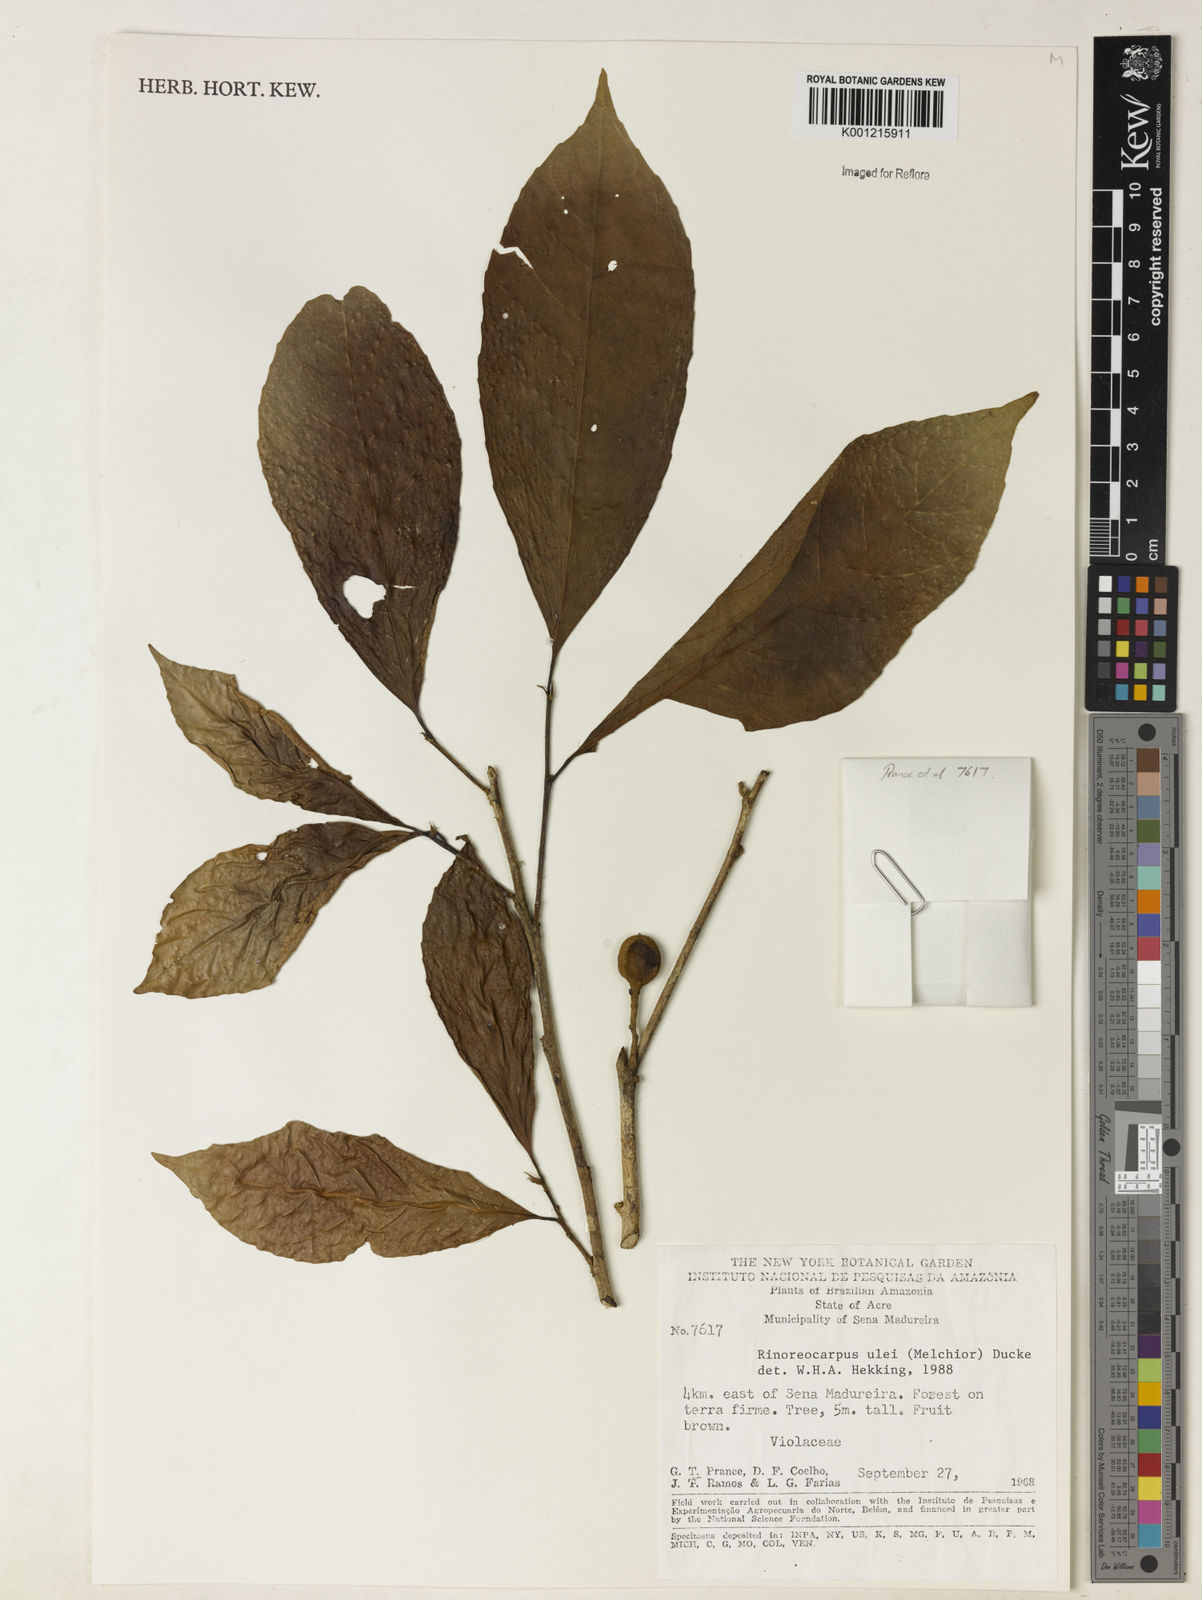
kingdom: Plantae
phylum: Tracheophyta
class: Magnoliopsida
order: Malpighiales
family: Violaceae
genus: Rinorea
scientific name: Rinorea
